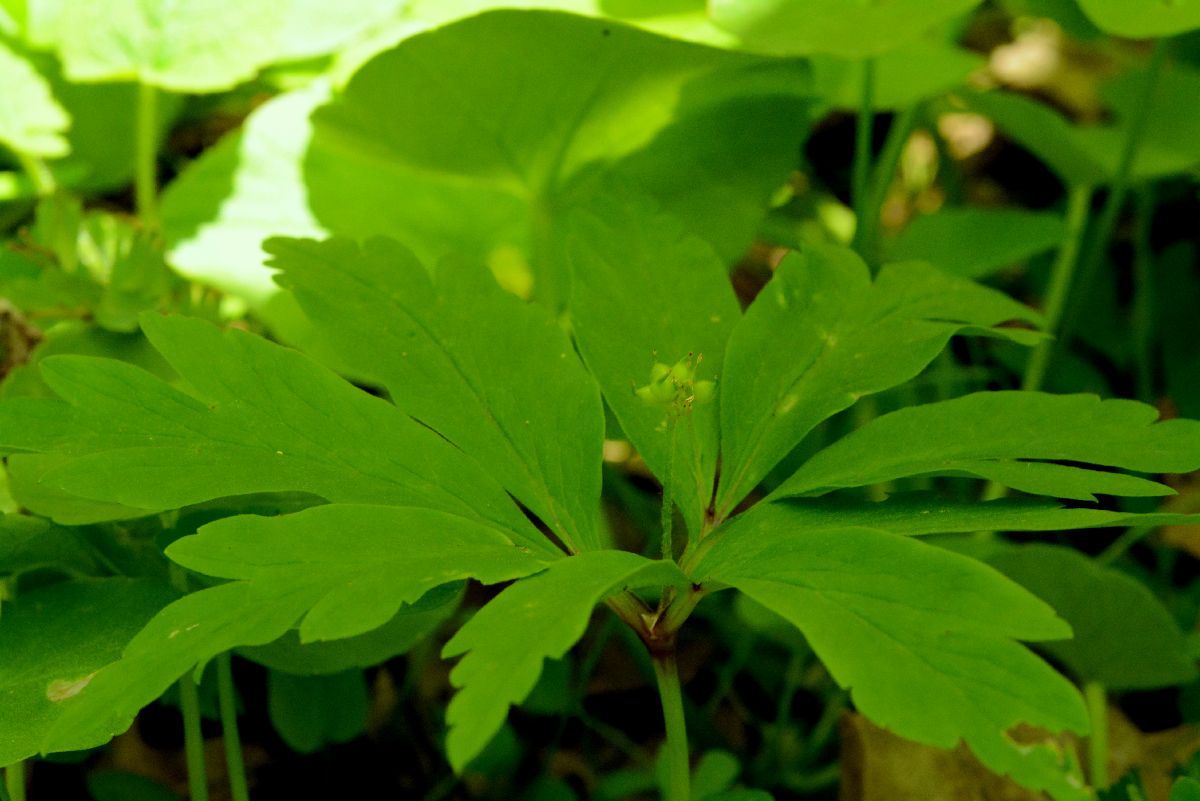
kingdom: Plantae
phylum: Tracheophyta
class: Magnoliopsida
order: Ranunculales
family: Ranunculaceae
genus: Anemone
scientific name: Anemone ranunculoides
